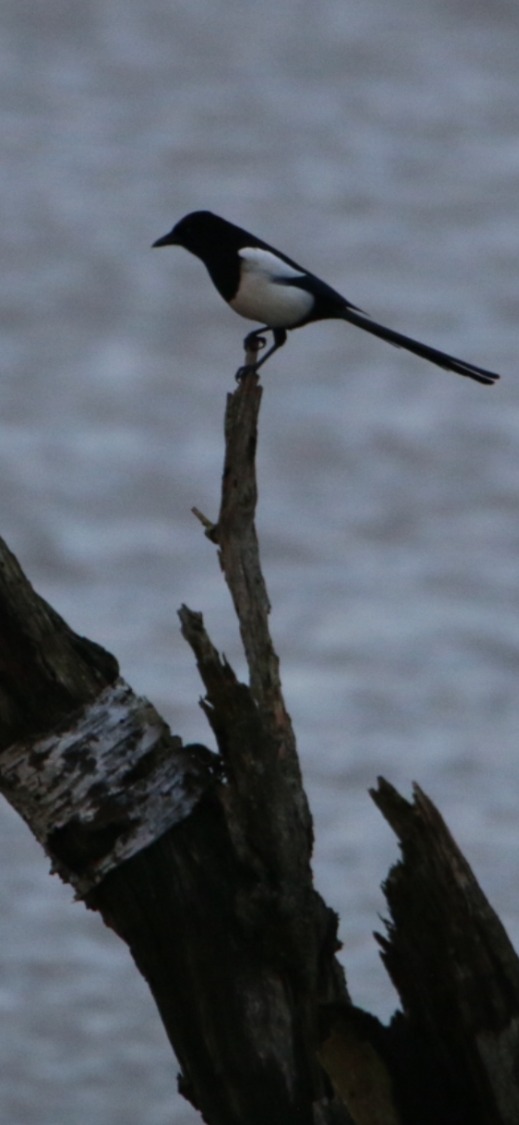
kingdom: Animalia
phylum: Chordata
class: Aves
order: Passeriformes
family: Corvidae
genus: Pica
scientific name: Pica pica
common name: Husskade
